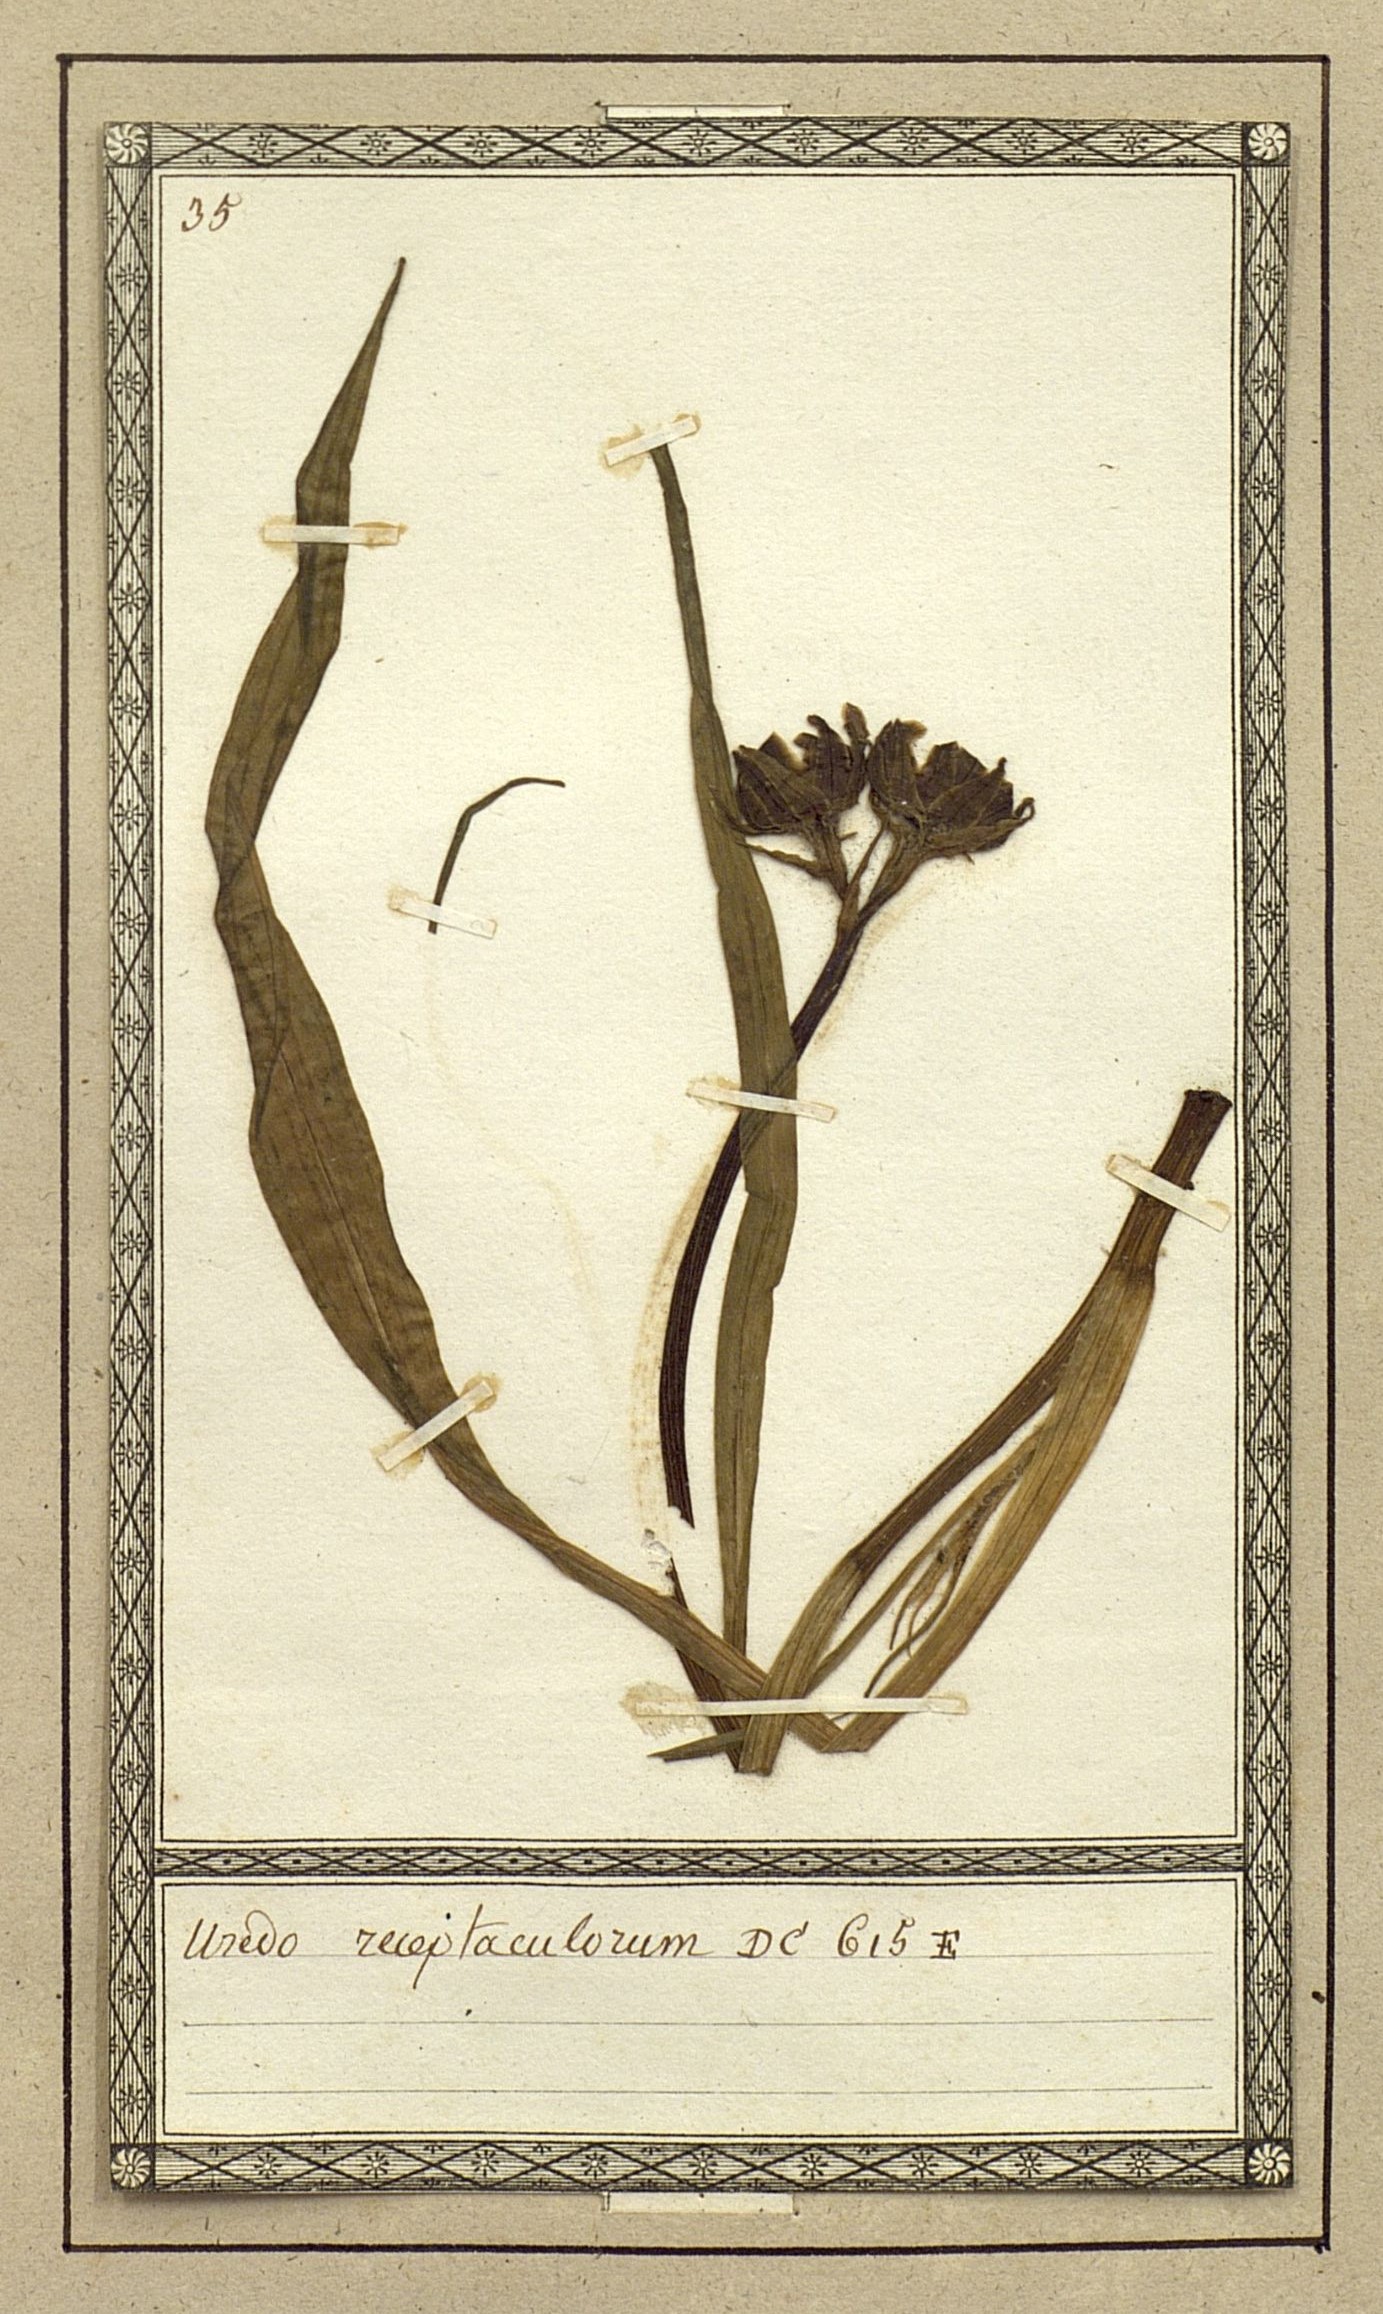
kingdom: Fungi
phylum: Basidiomycota
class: Microbotryomycetes
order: Microbotryales
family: Microbotryaceae
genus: Microbotryum
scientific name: Microbotryum tragopogonis-pratensis
